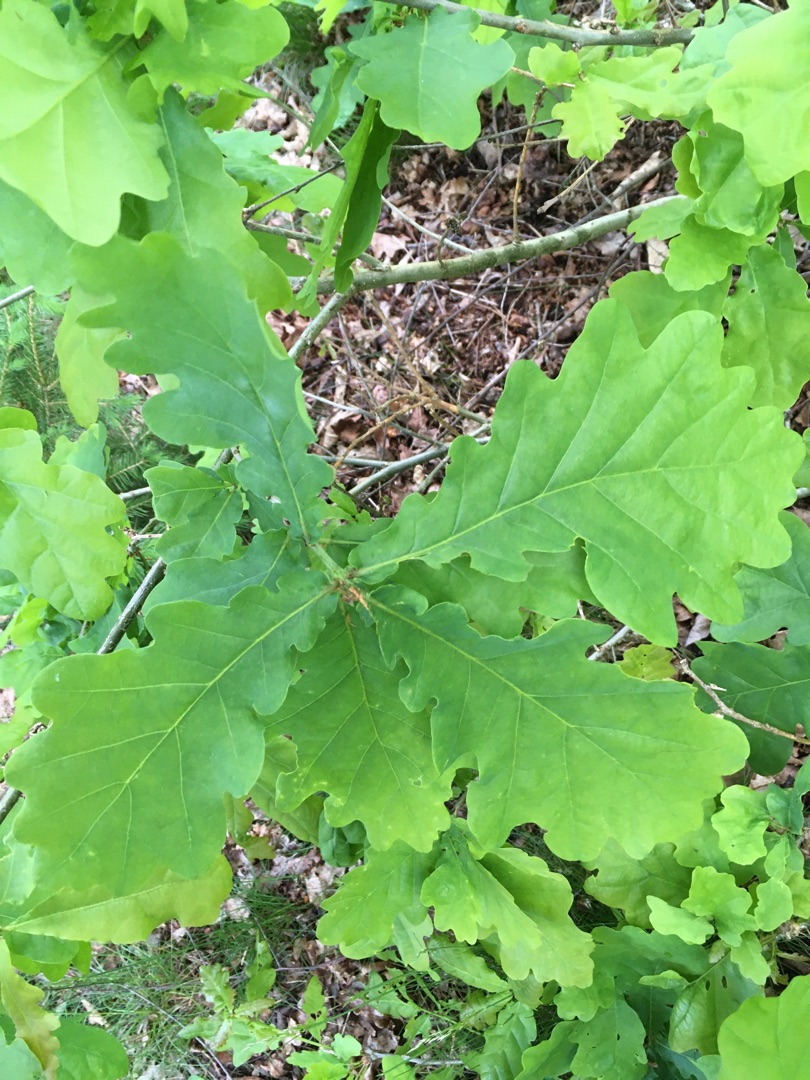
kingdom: Plantae
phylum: Tracheophyta
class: Magnoliopsida
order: Fagales
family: Fagaceae
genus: Quercus
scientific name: Quercus robur
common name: Stilk-eg/almindelig eg
